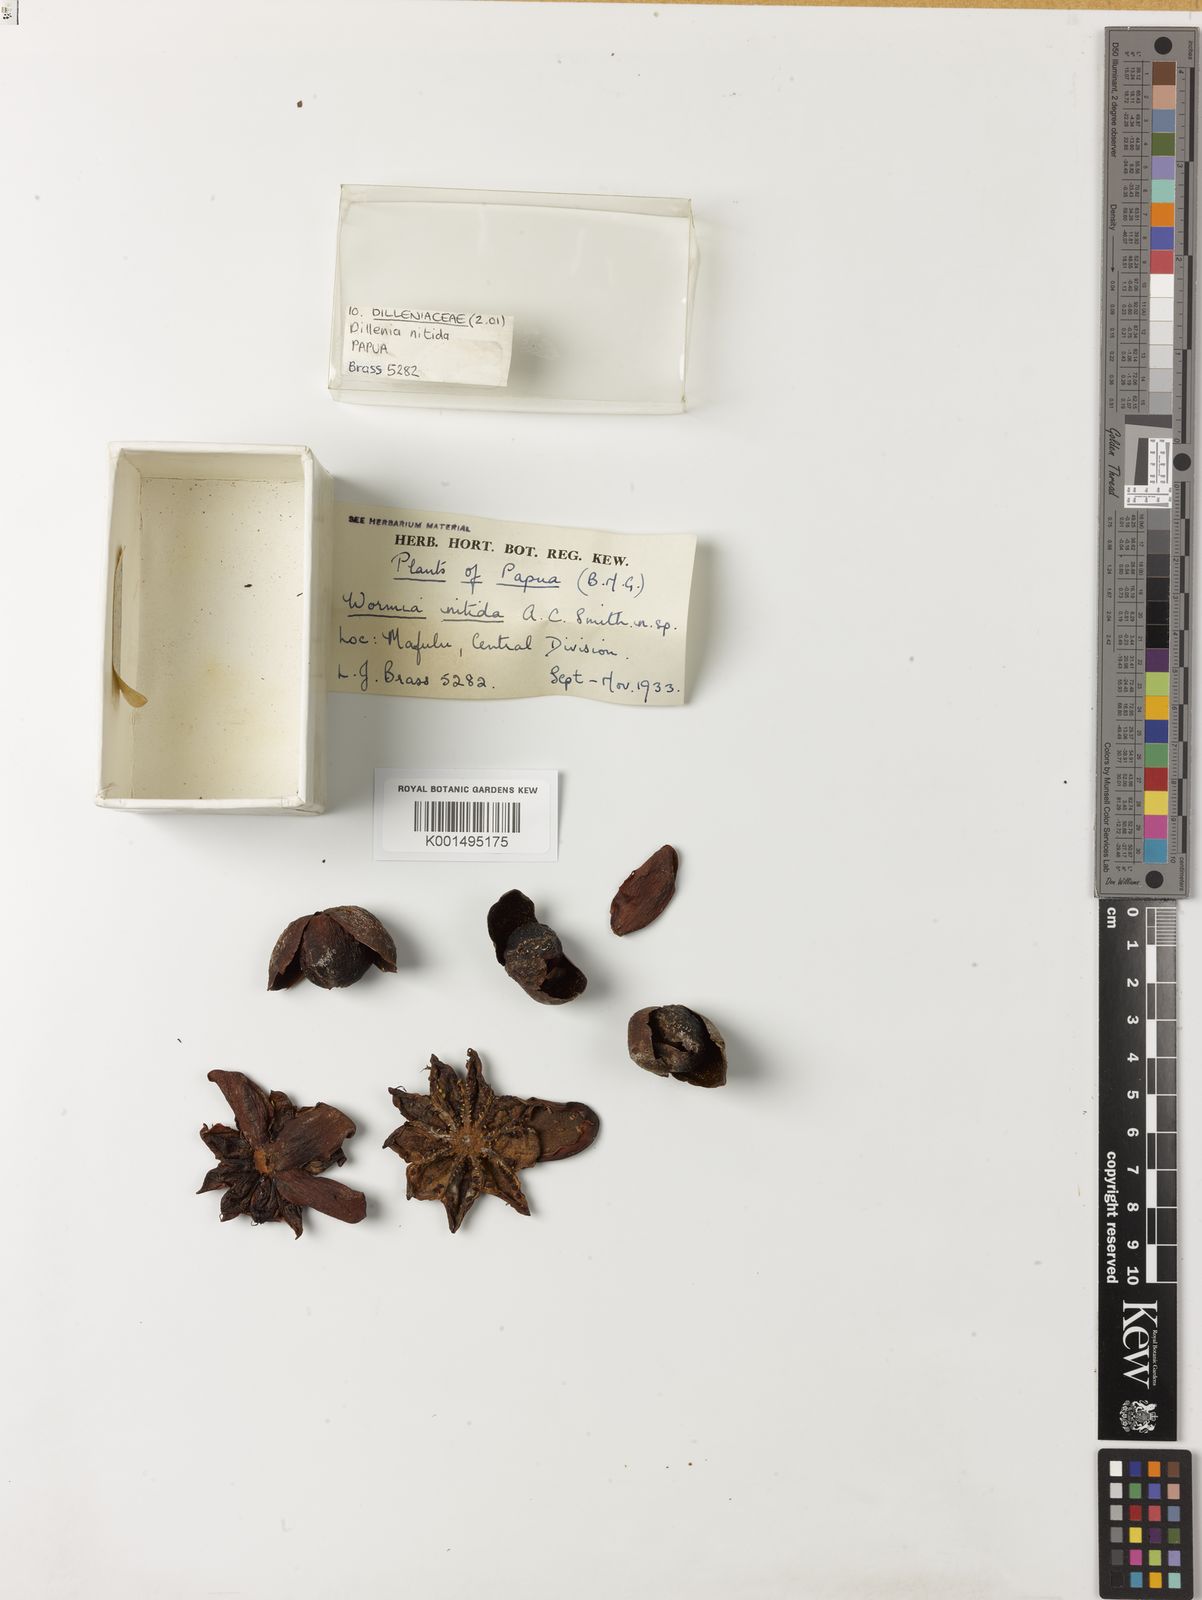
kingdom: Plantae
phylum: Tracheophyta
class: Magnoliopsida
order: Dilleniales
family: Dilleniaceae
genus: Dillenia
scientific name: Dillenia schlechteri
